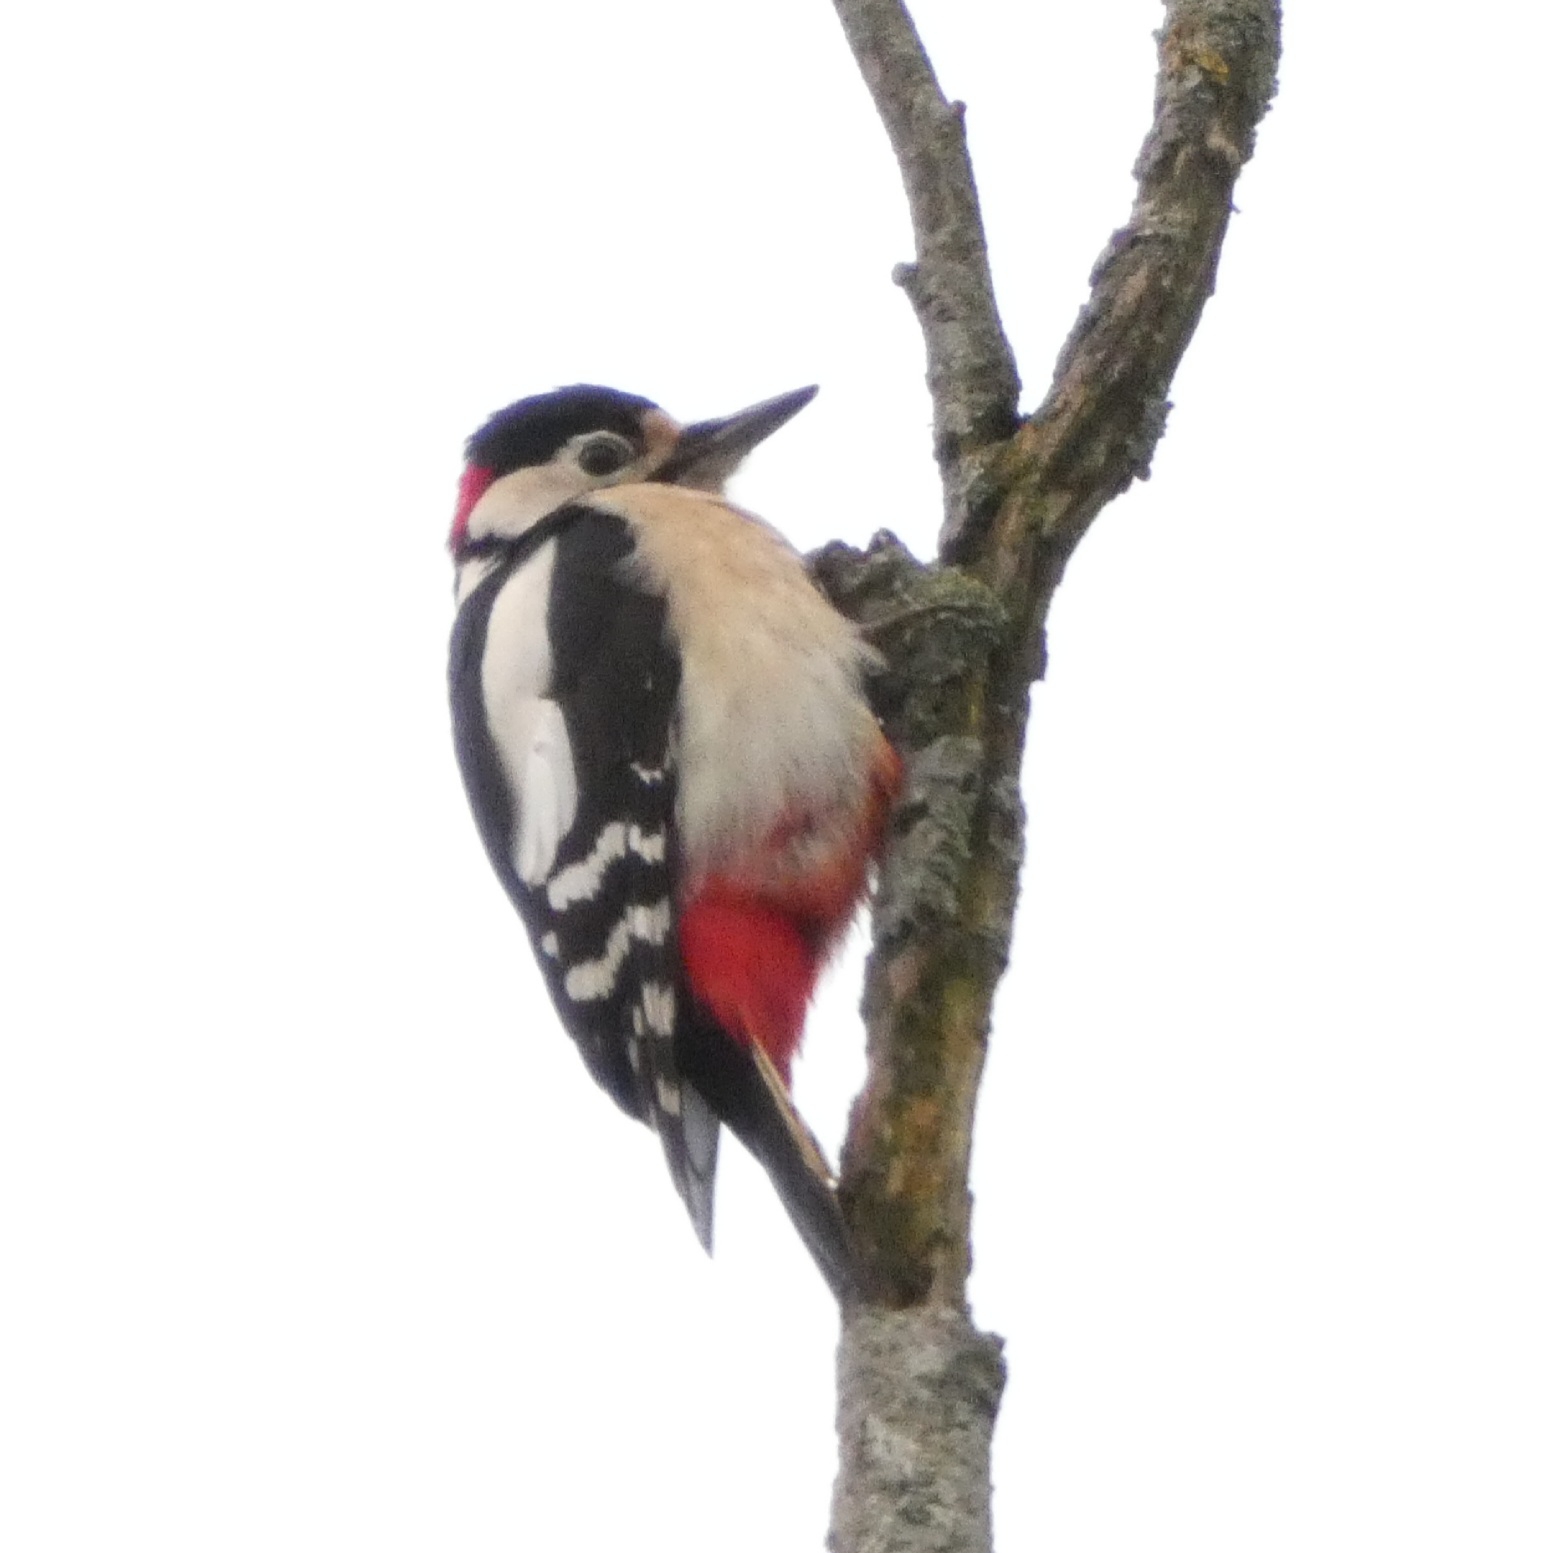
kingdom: Animalia
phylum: Chordata
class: Aves
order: Piciformes
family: Picidae
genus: Dendrocopos
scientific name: Dendrocopos major
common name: Stor flagspætte
